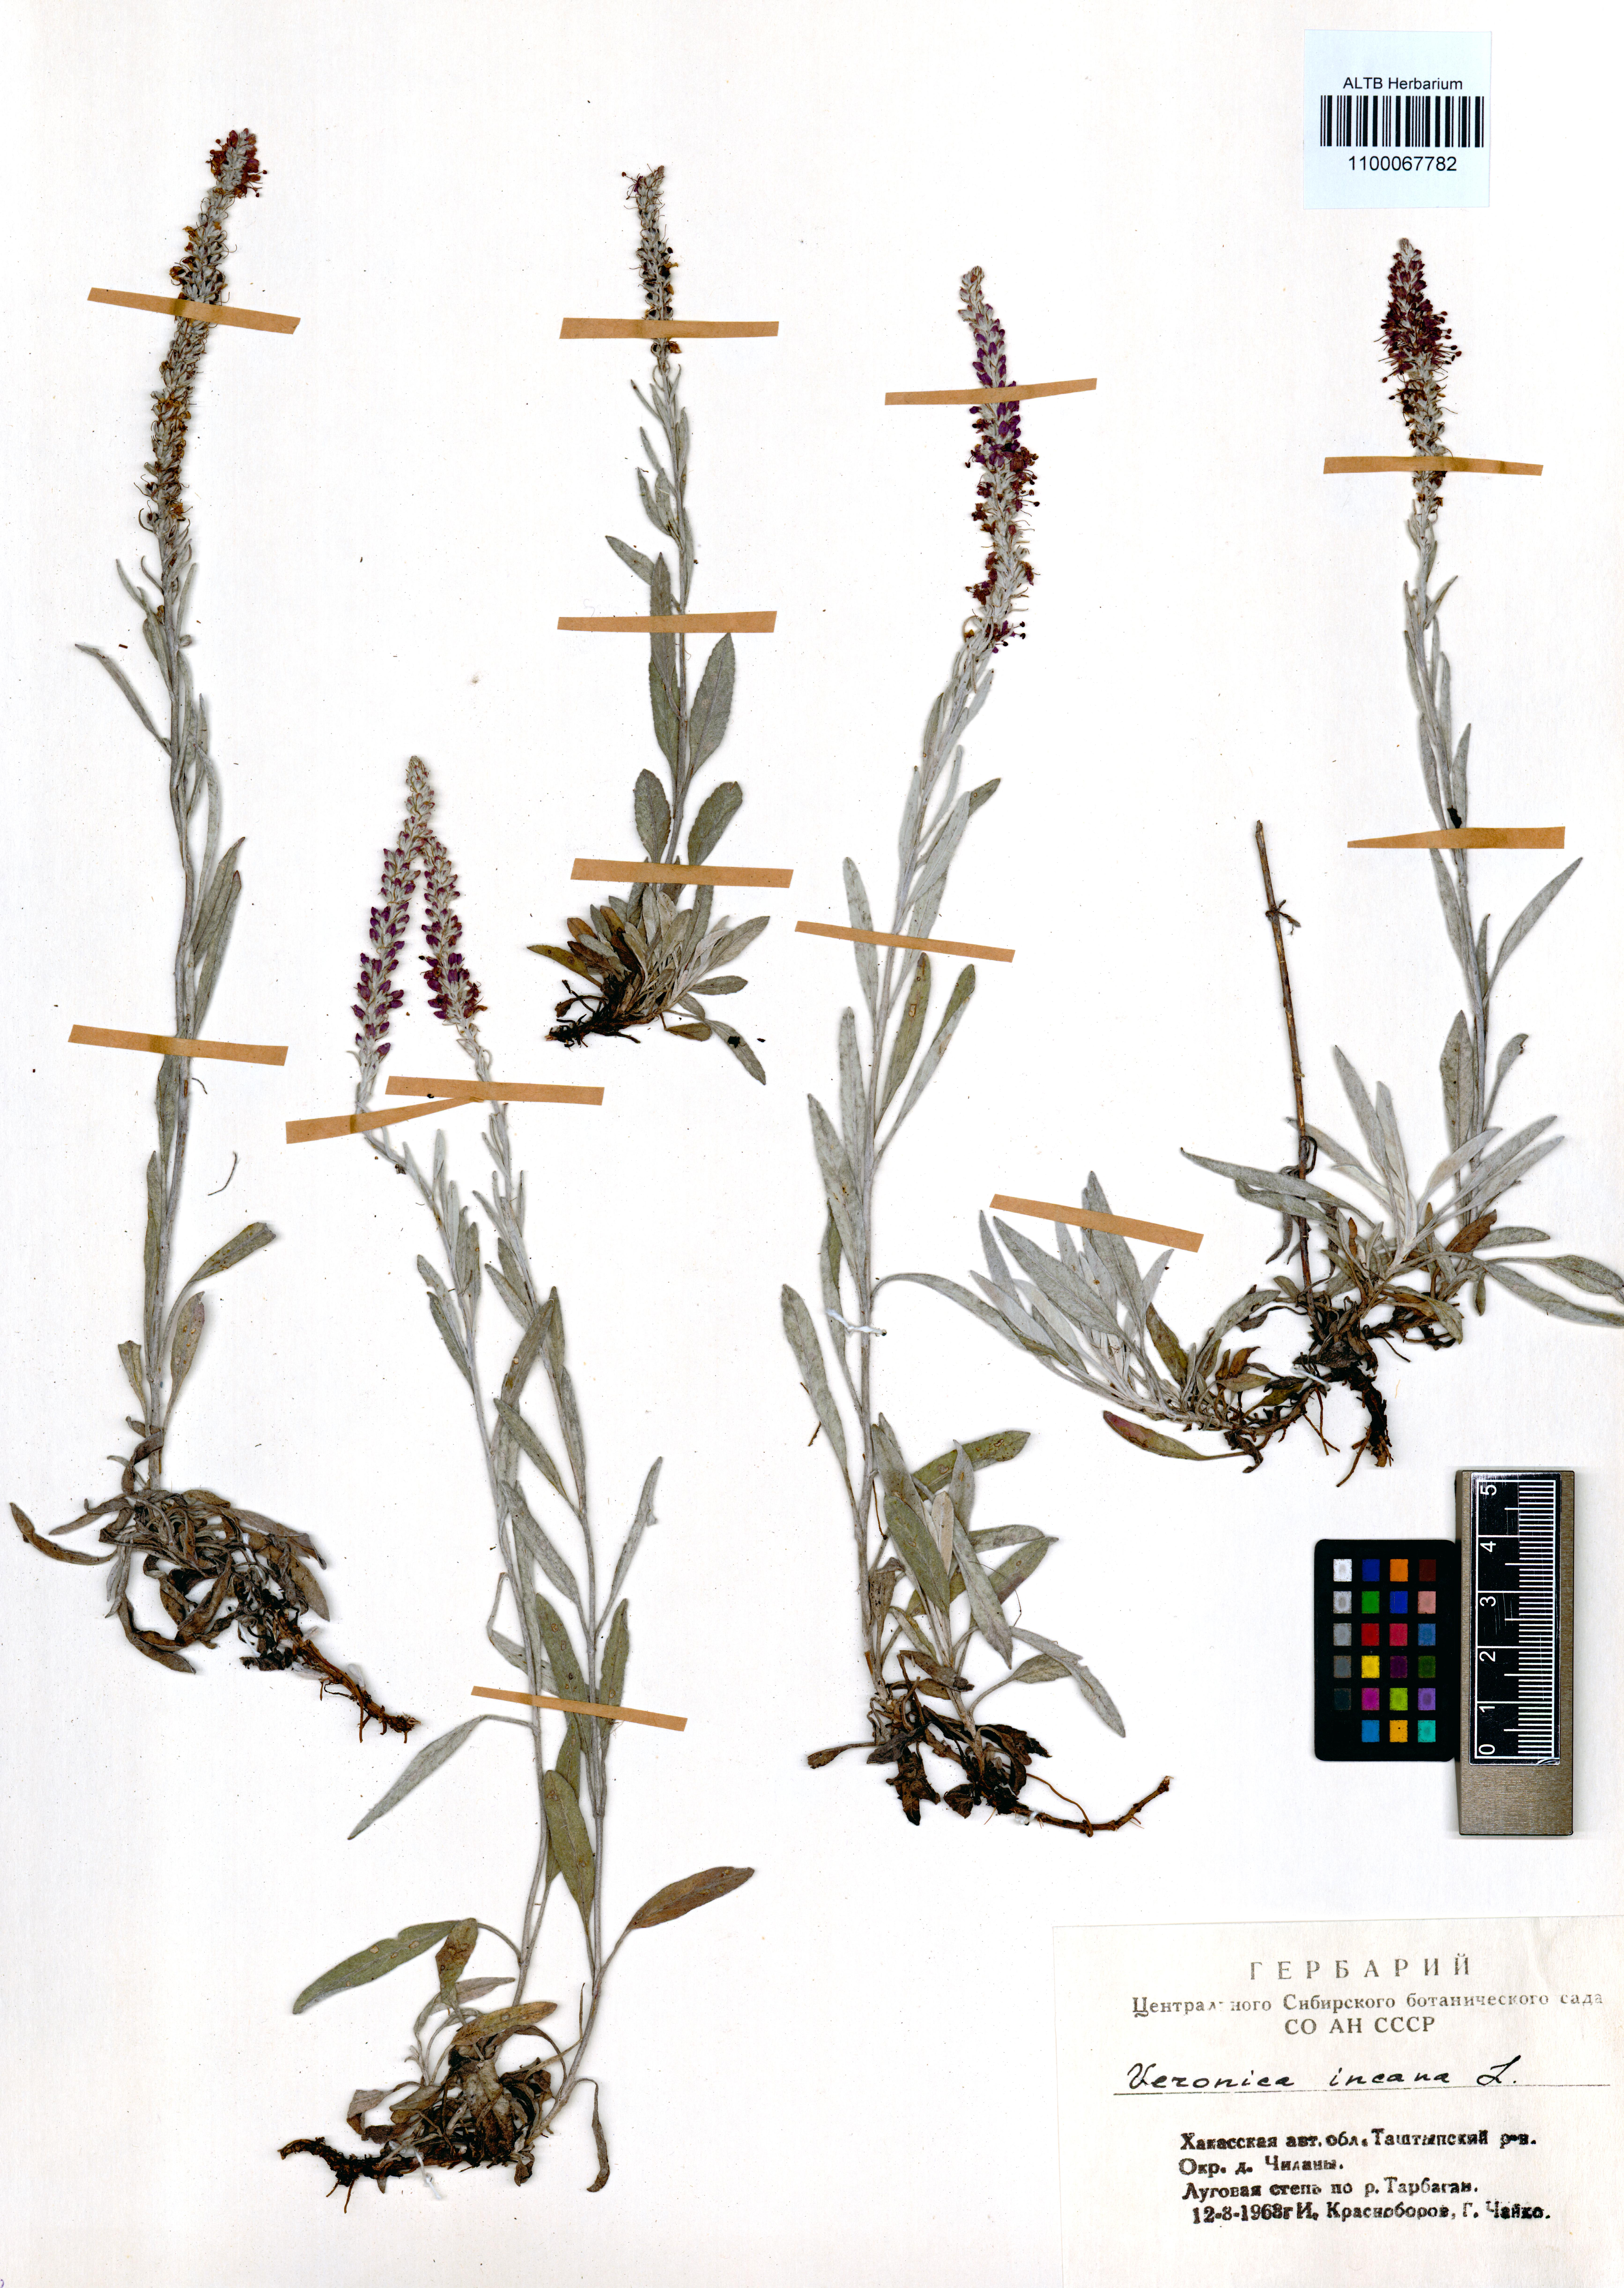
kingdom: Plantae
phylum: Tracheophyta
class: Magnoliopsida
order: Lamiales
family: Plantaginaceae
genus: Veronica
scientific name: Veronica incana
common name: Silver speedwell
